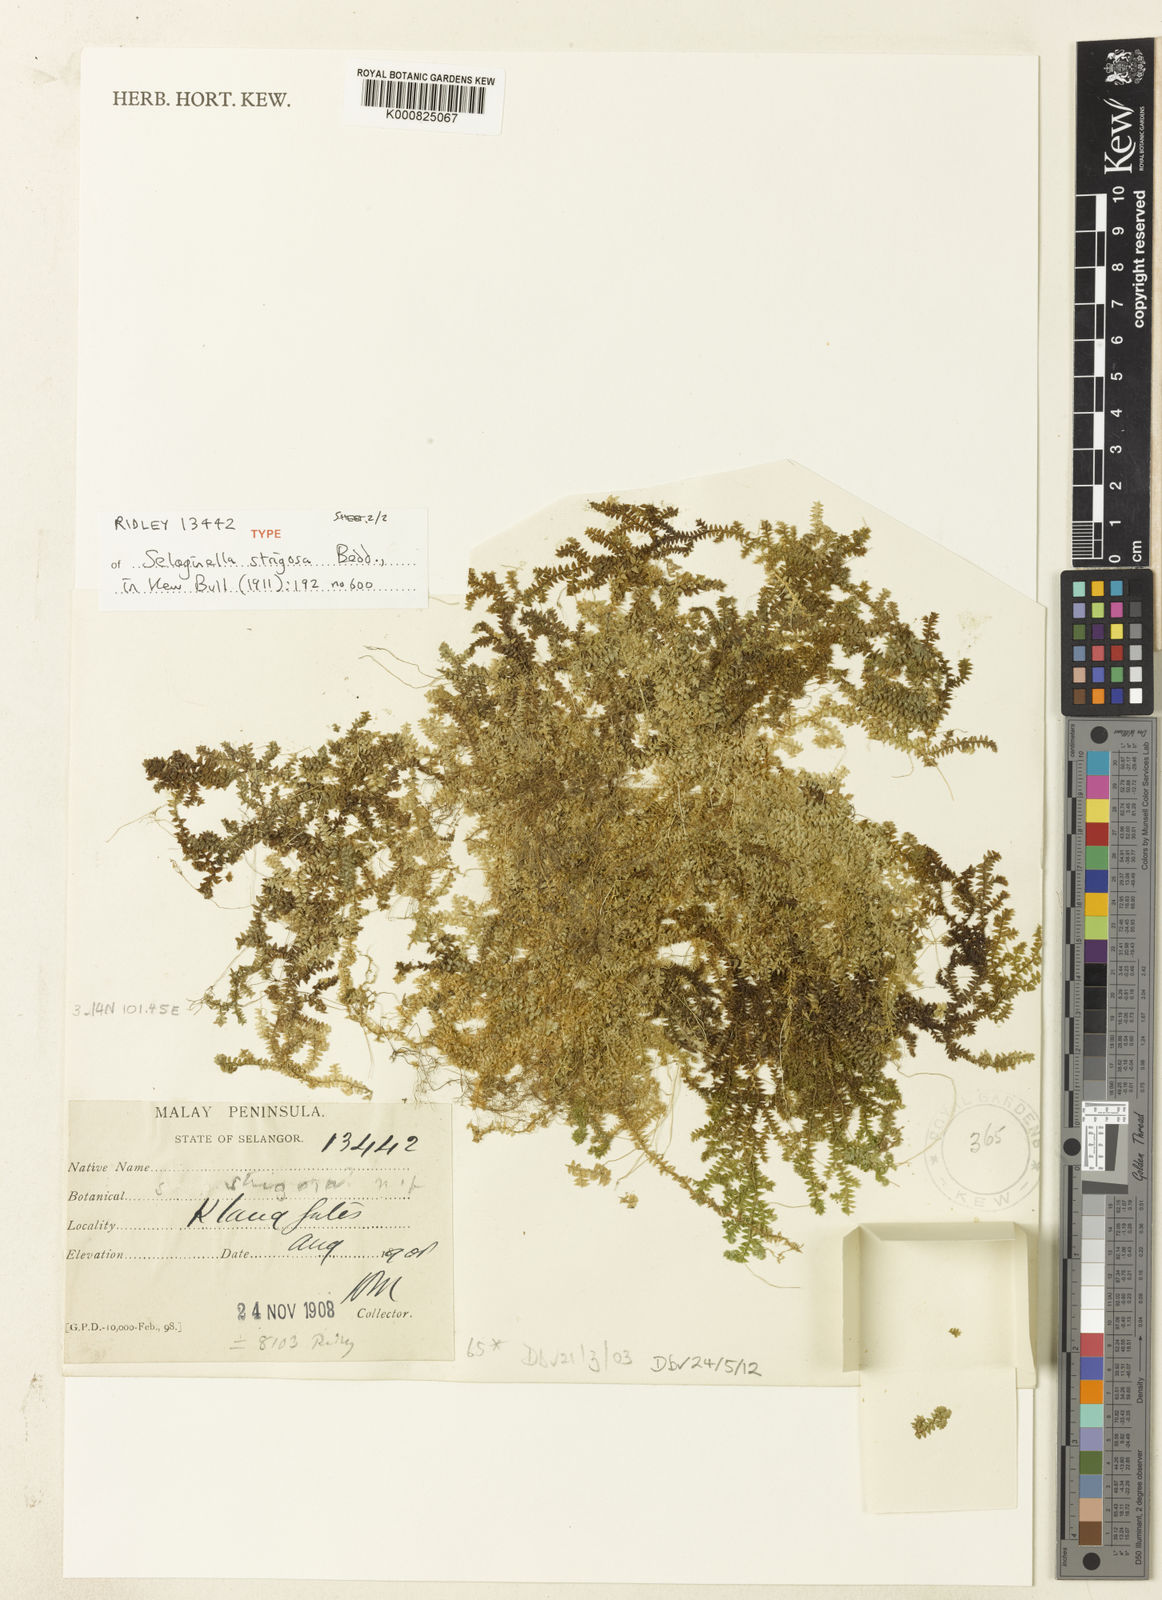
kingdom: Plantae
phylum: Tracheophyta
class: Lycopodiopsida
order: Selaginellales
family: Selaginellaceae
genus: Selaginella
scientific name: Selaginella strigosa
